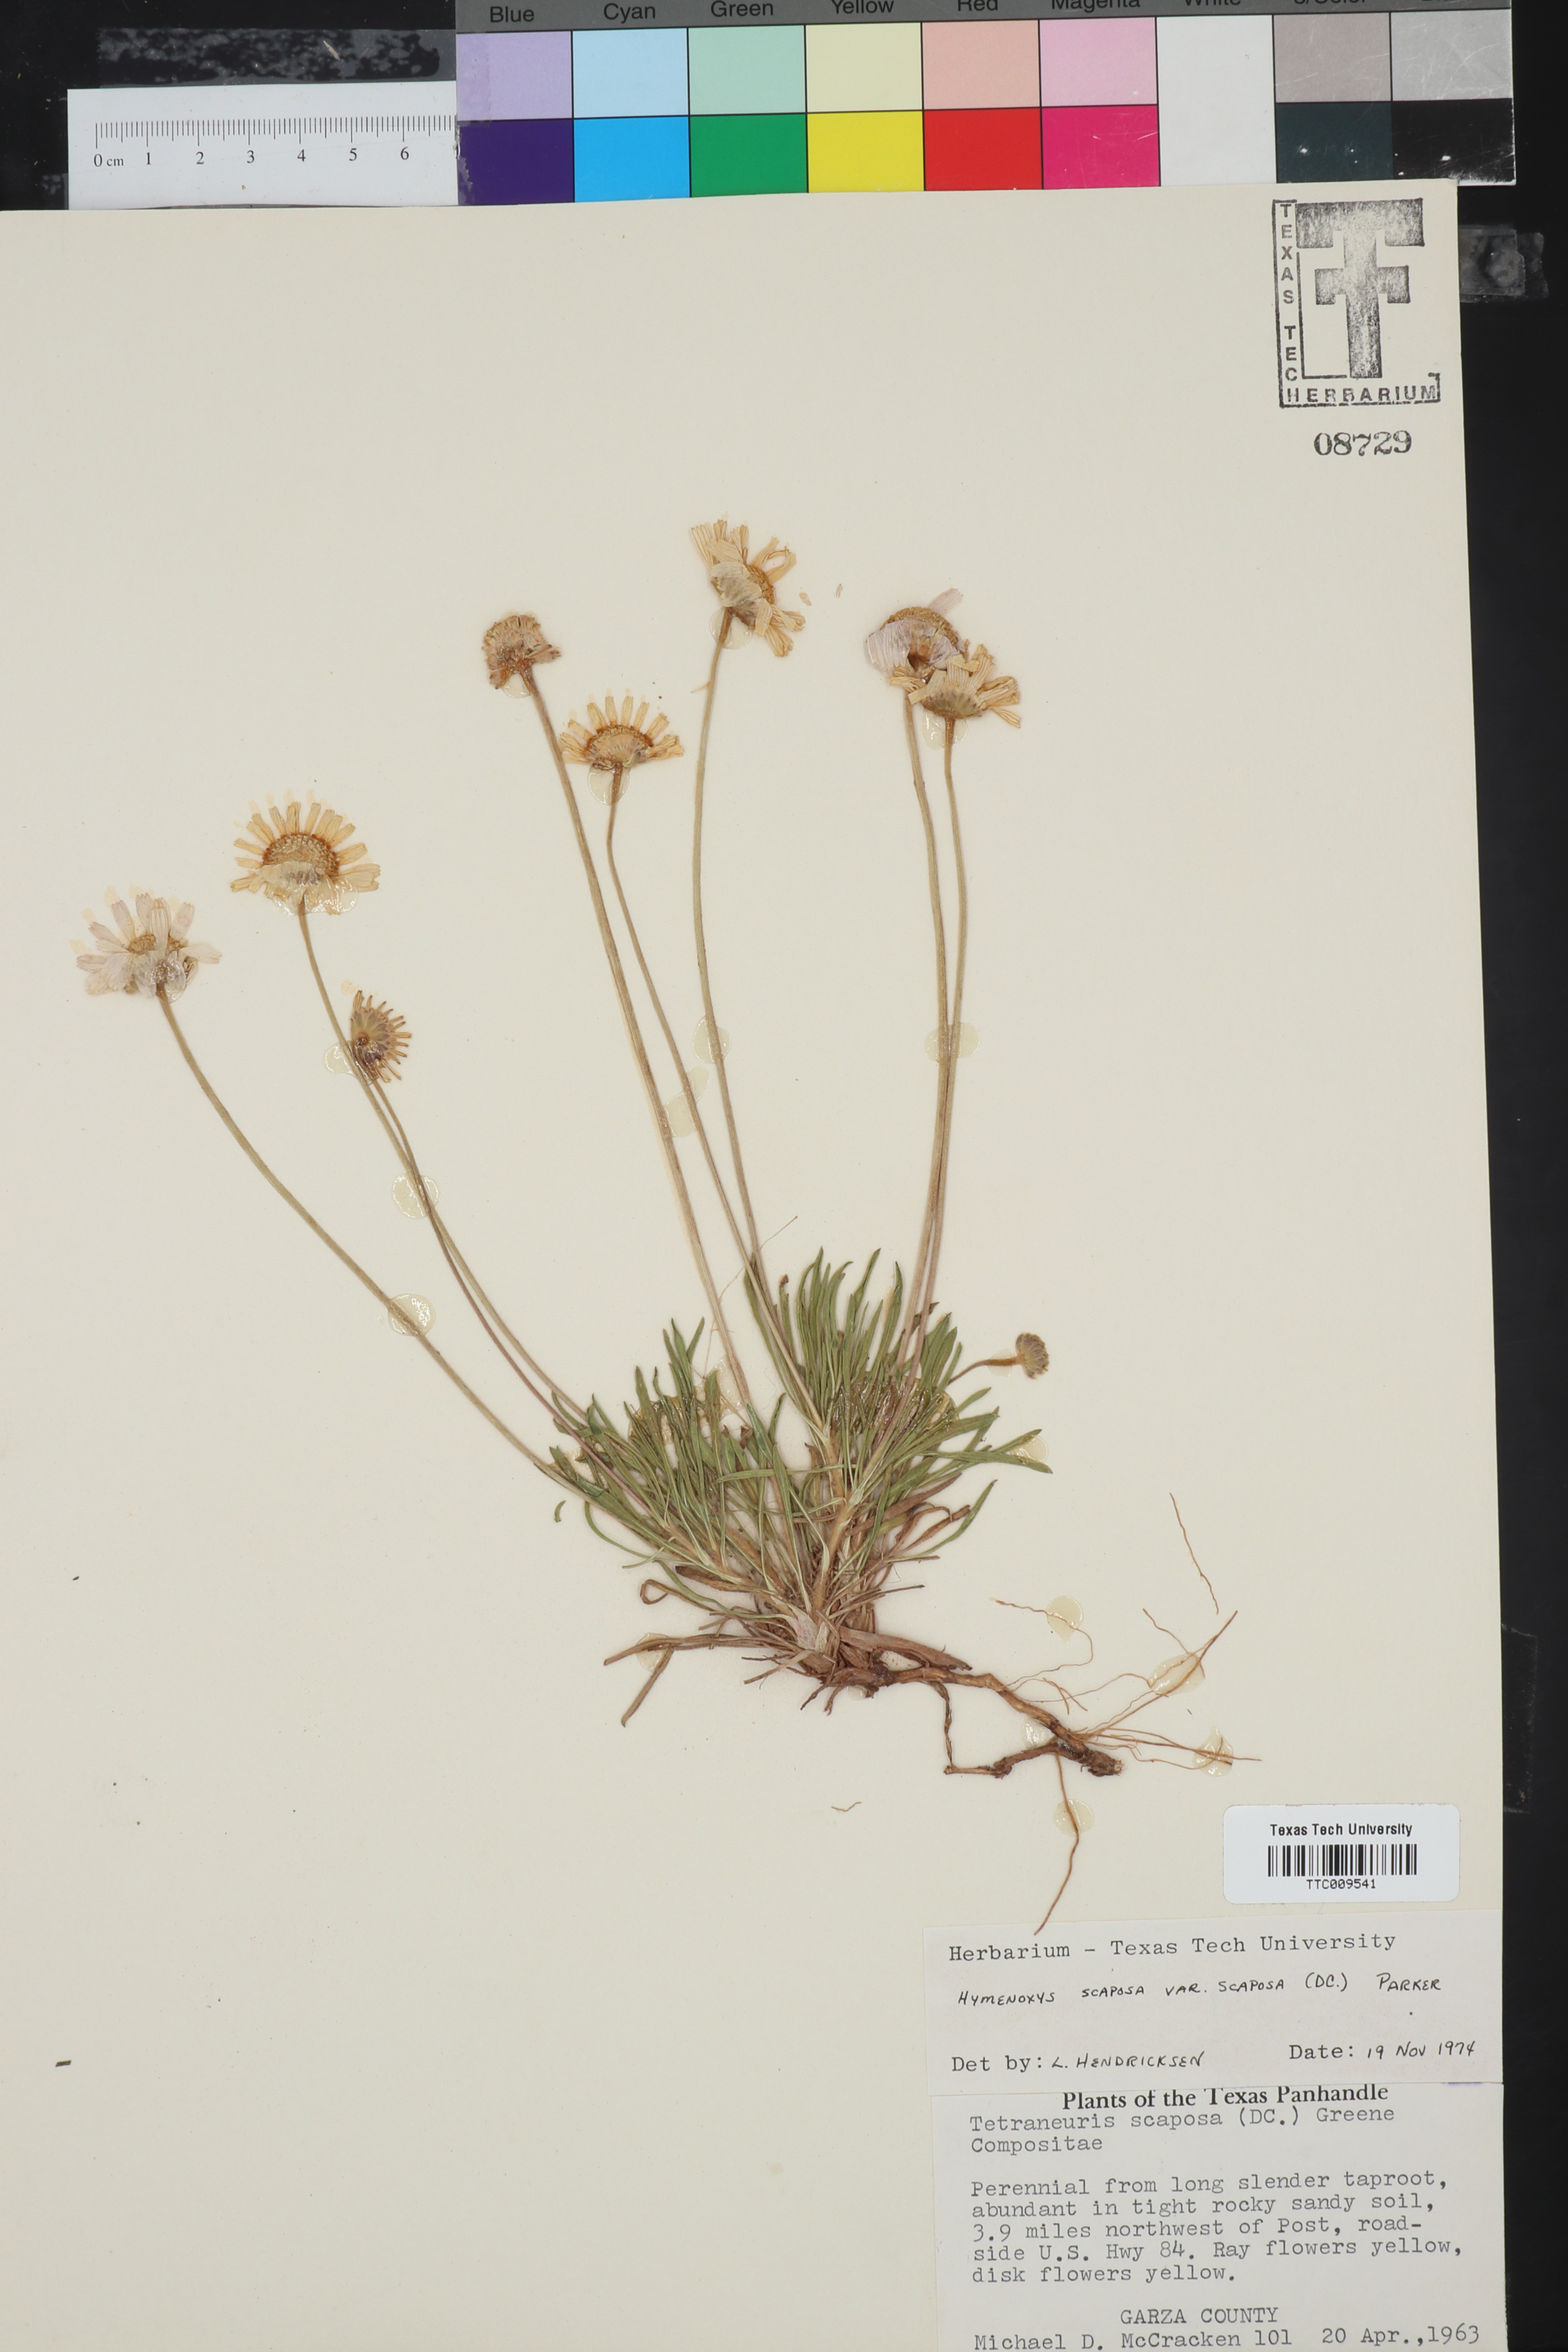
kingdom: Plantae
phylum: Tracheophyta
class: Magnoliopsida
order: Asterales
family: Asteraceae
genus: Tetraneuris
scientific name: Tetraneuris scaposa
